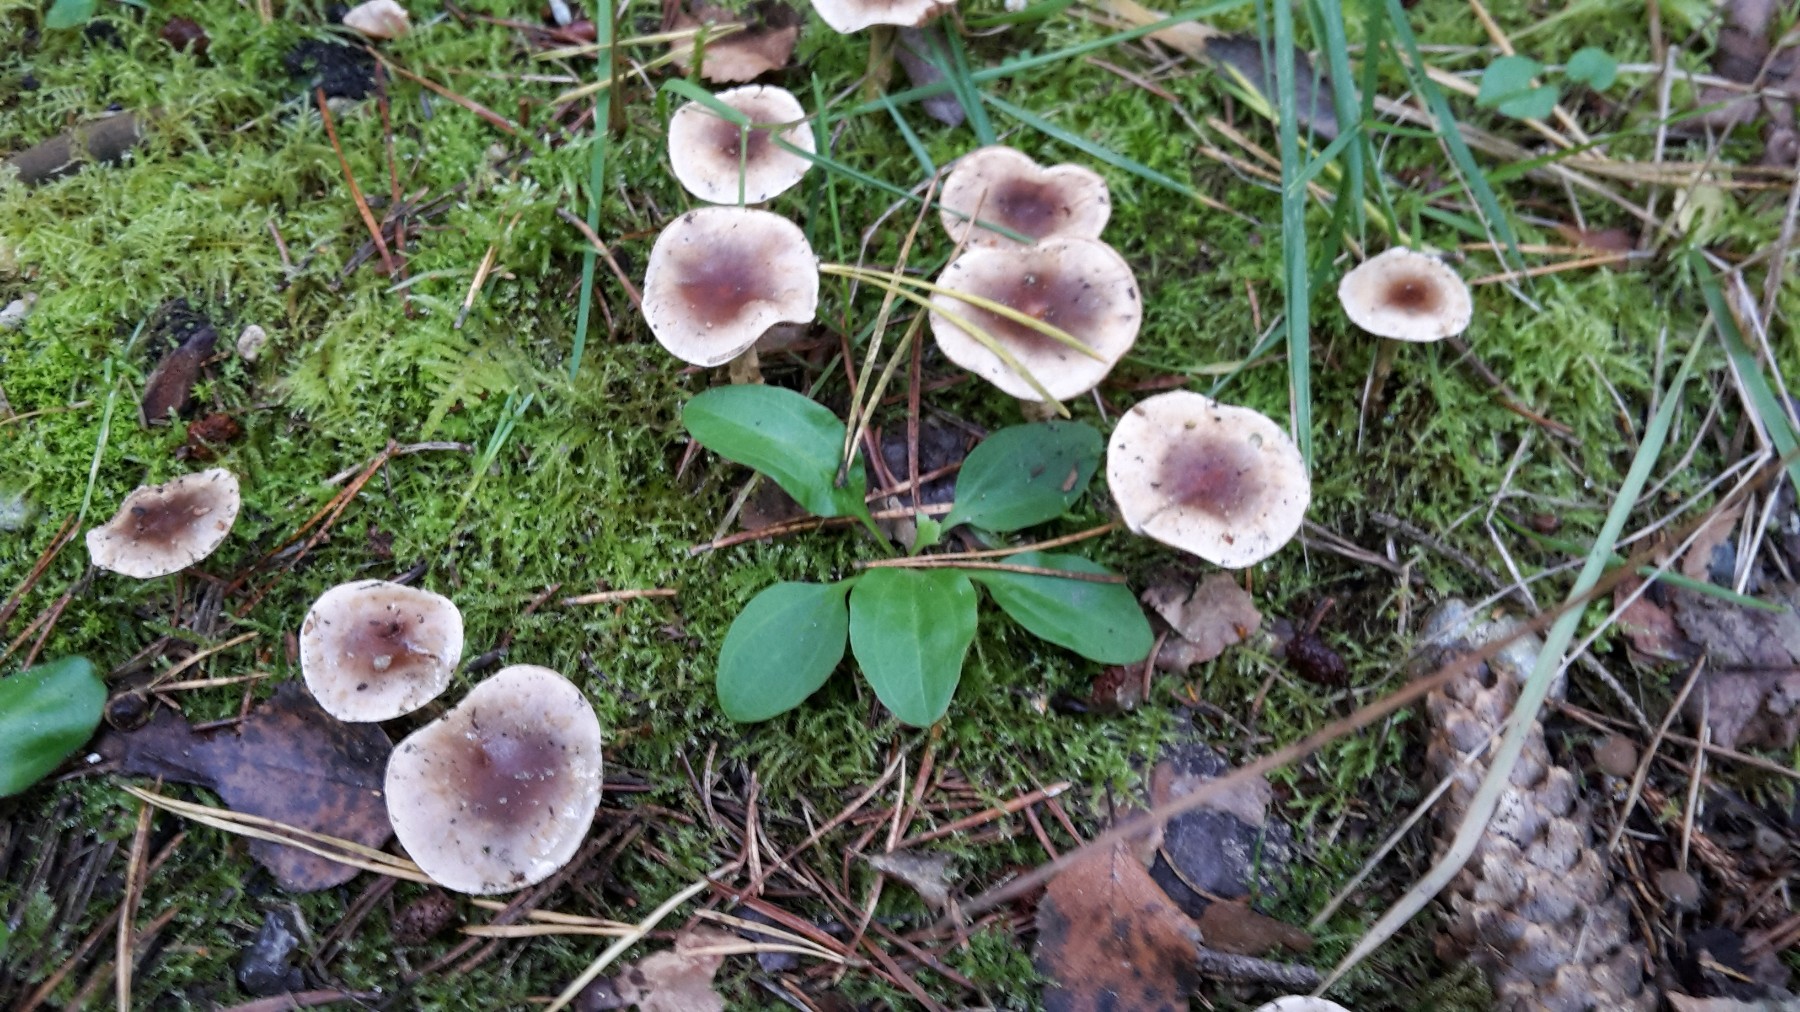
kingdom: Fungi
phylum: Basidiomycota
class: Agaricomycetes
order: Agaricales
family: Hymenogastraceae
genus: Hebeloma
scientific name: Hebeloma mesophaeum
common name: lerbrun tåreblad
